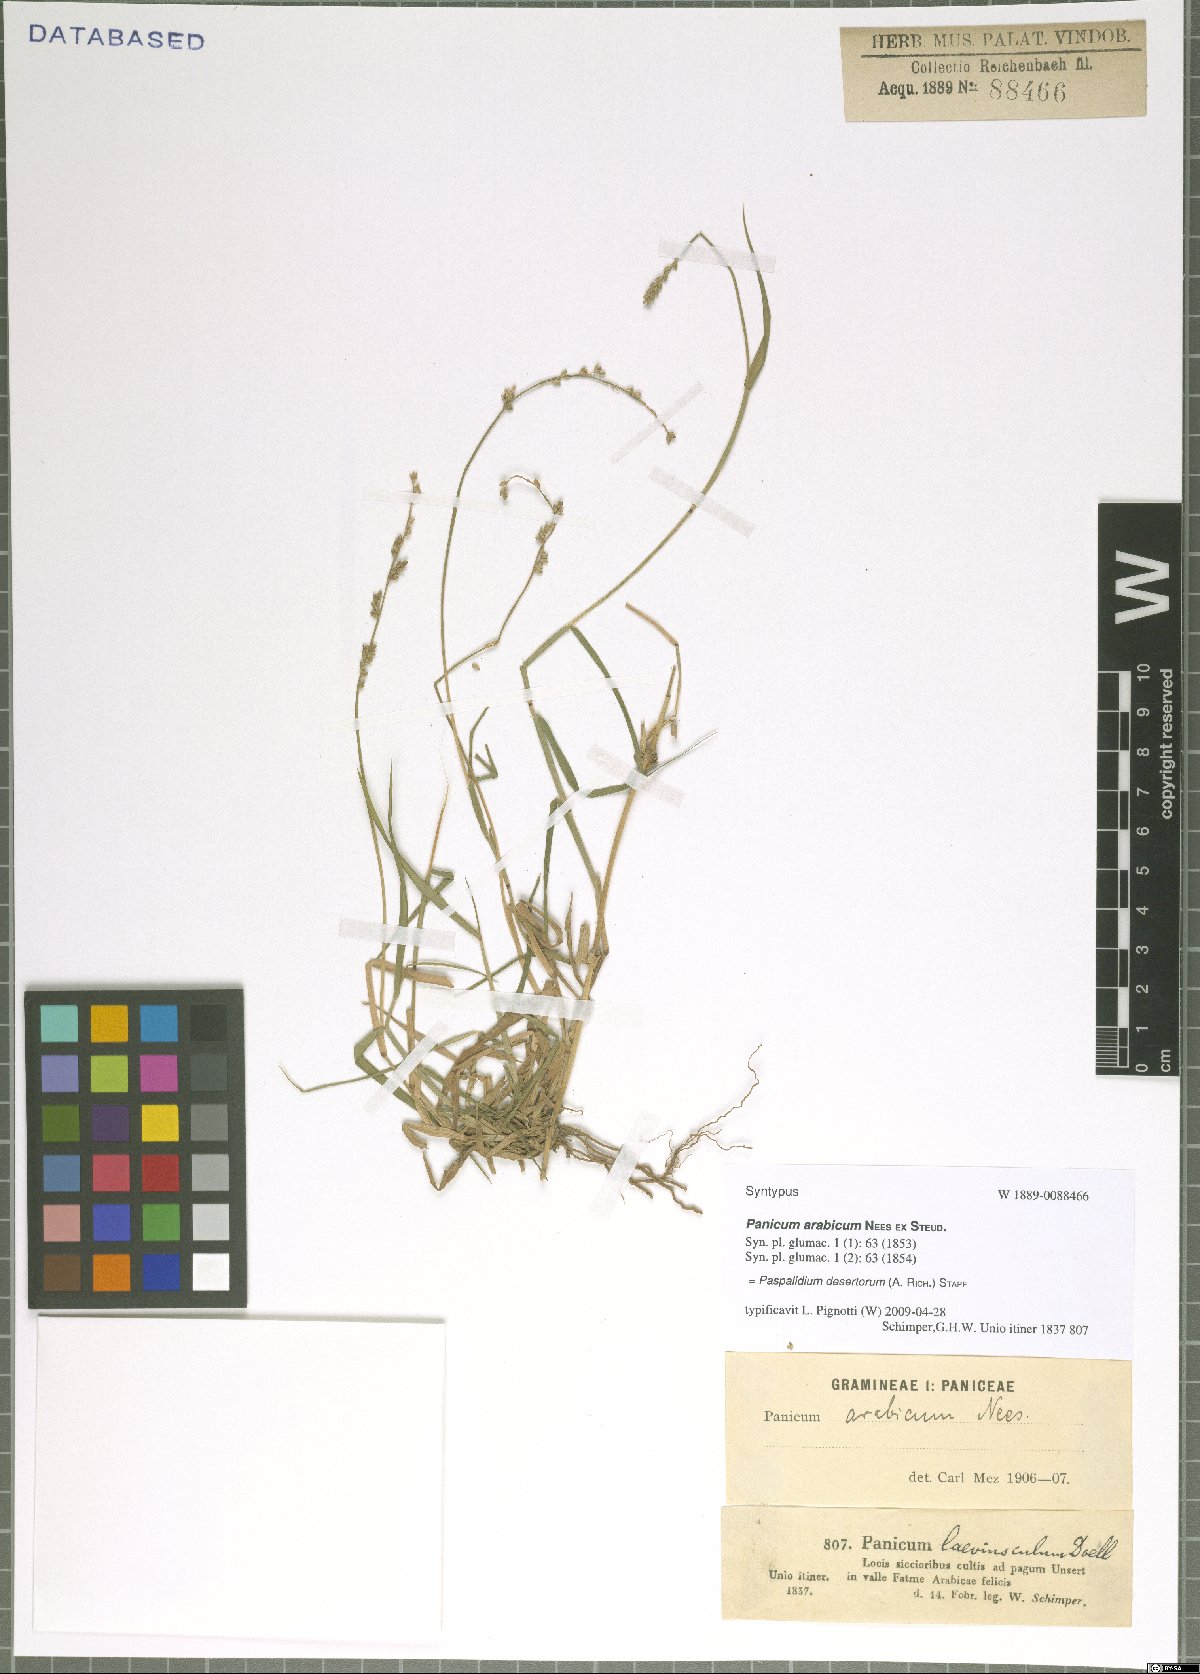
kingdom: Plantae
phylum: Tracheophyta
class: Liliopsida
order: Poales
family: Poaceae
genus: Setaria
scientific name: Setaria desertorum
